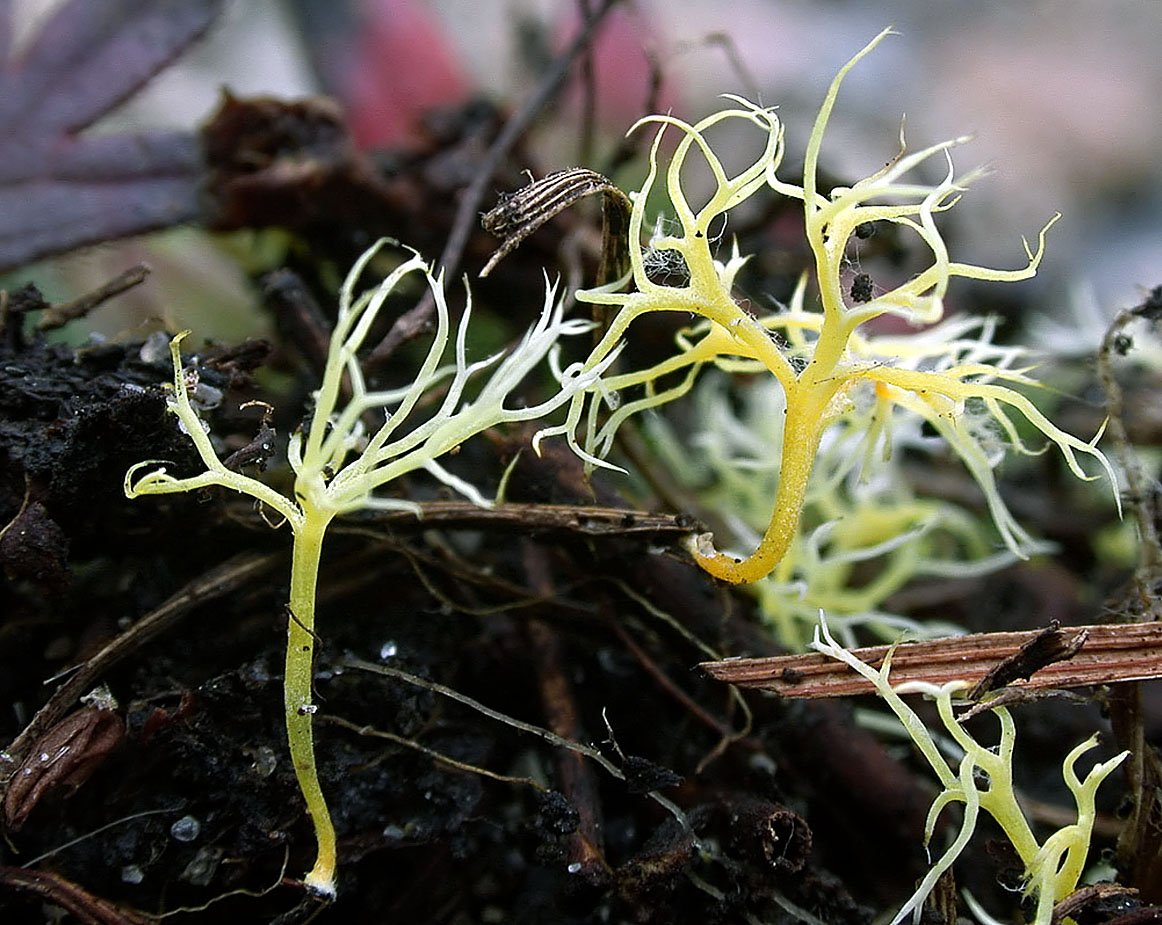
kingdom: Fungi
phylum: Basidiomycota
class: Agaricomycetes
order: Agaricales
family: Clavariaceae
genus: Ramariopsis
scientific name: Ramariopsis citrina
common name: citrongul køllesvamp
